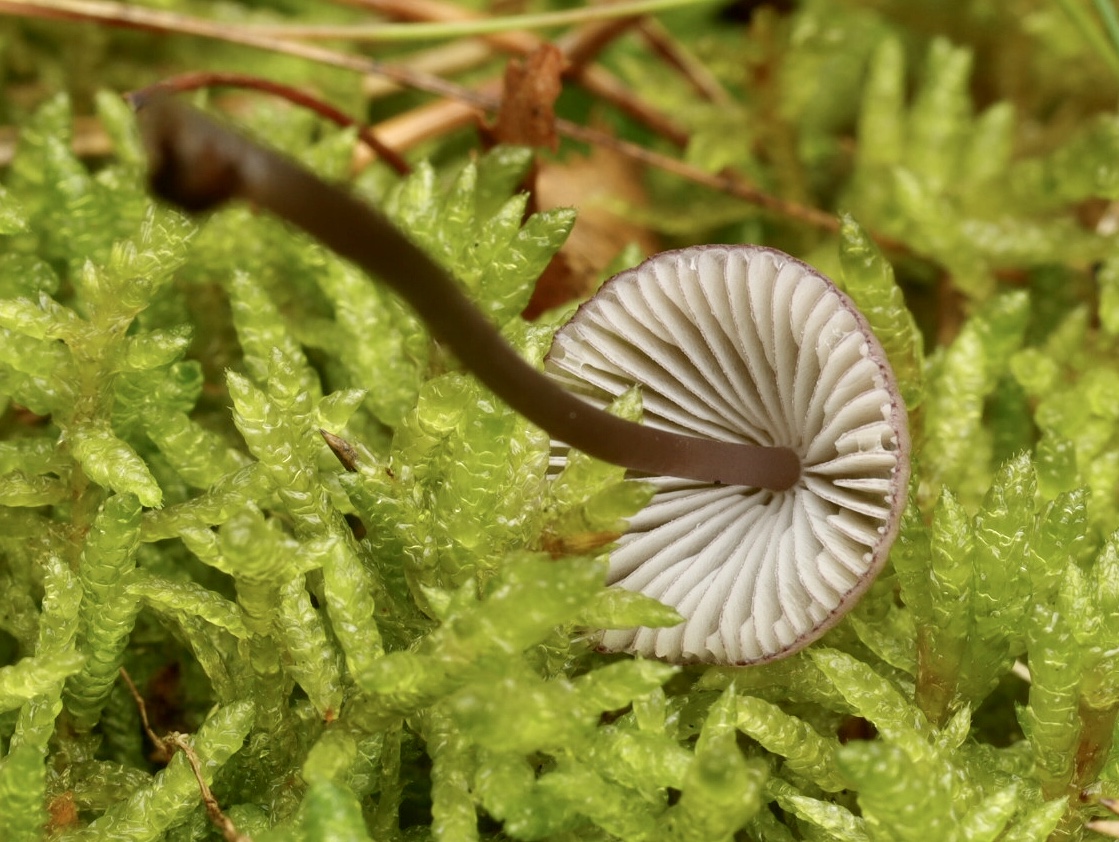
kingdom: Fungi
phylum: Basidiomycota
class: Agaricomycetes
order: Agaricales
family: Mycenaceae
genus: Mycena
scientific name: Mycena purpureofusca
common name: purpur-huesvamp
